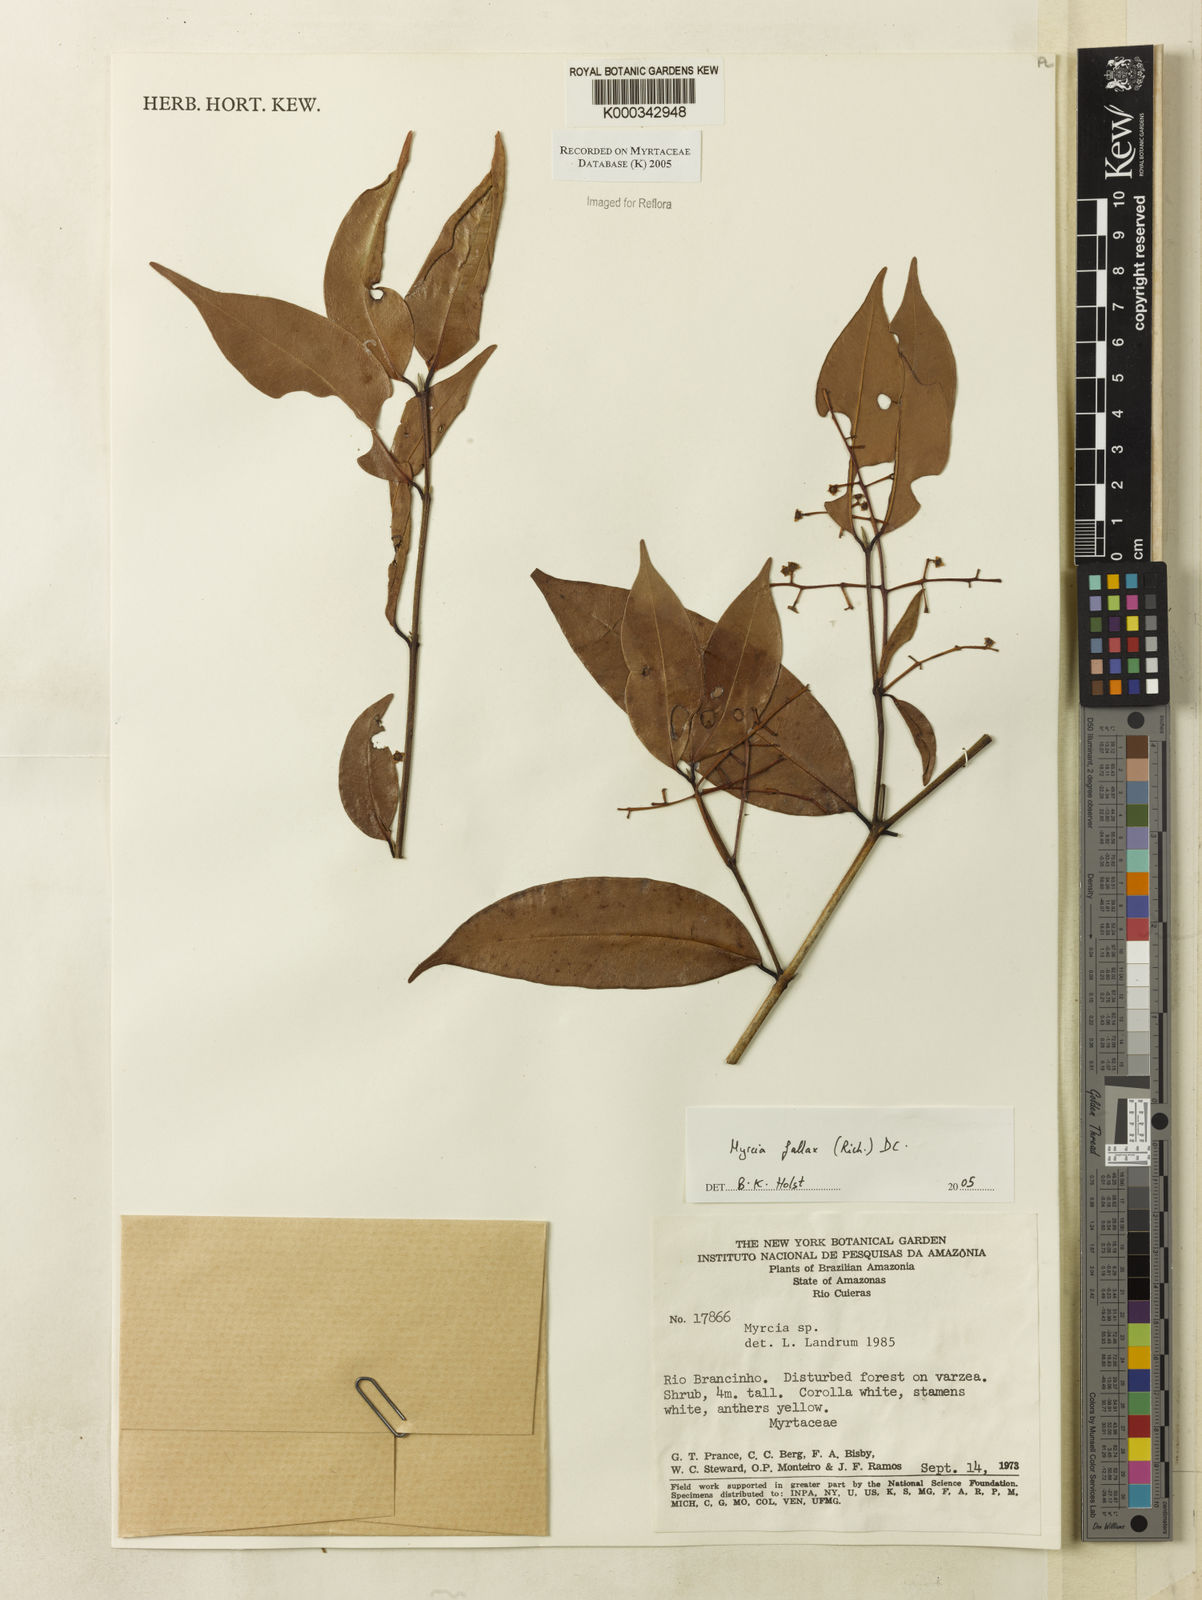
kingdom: Plantae
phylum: Tracheophyta
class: Magnoliopsida
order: Myrtales
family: Myrtaceae
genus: Myrcia
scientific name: Myrcia splendens
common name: Surinam cherry
